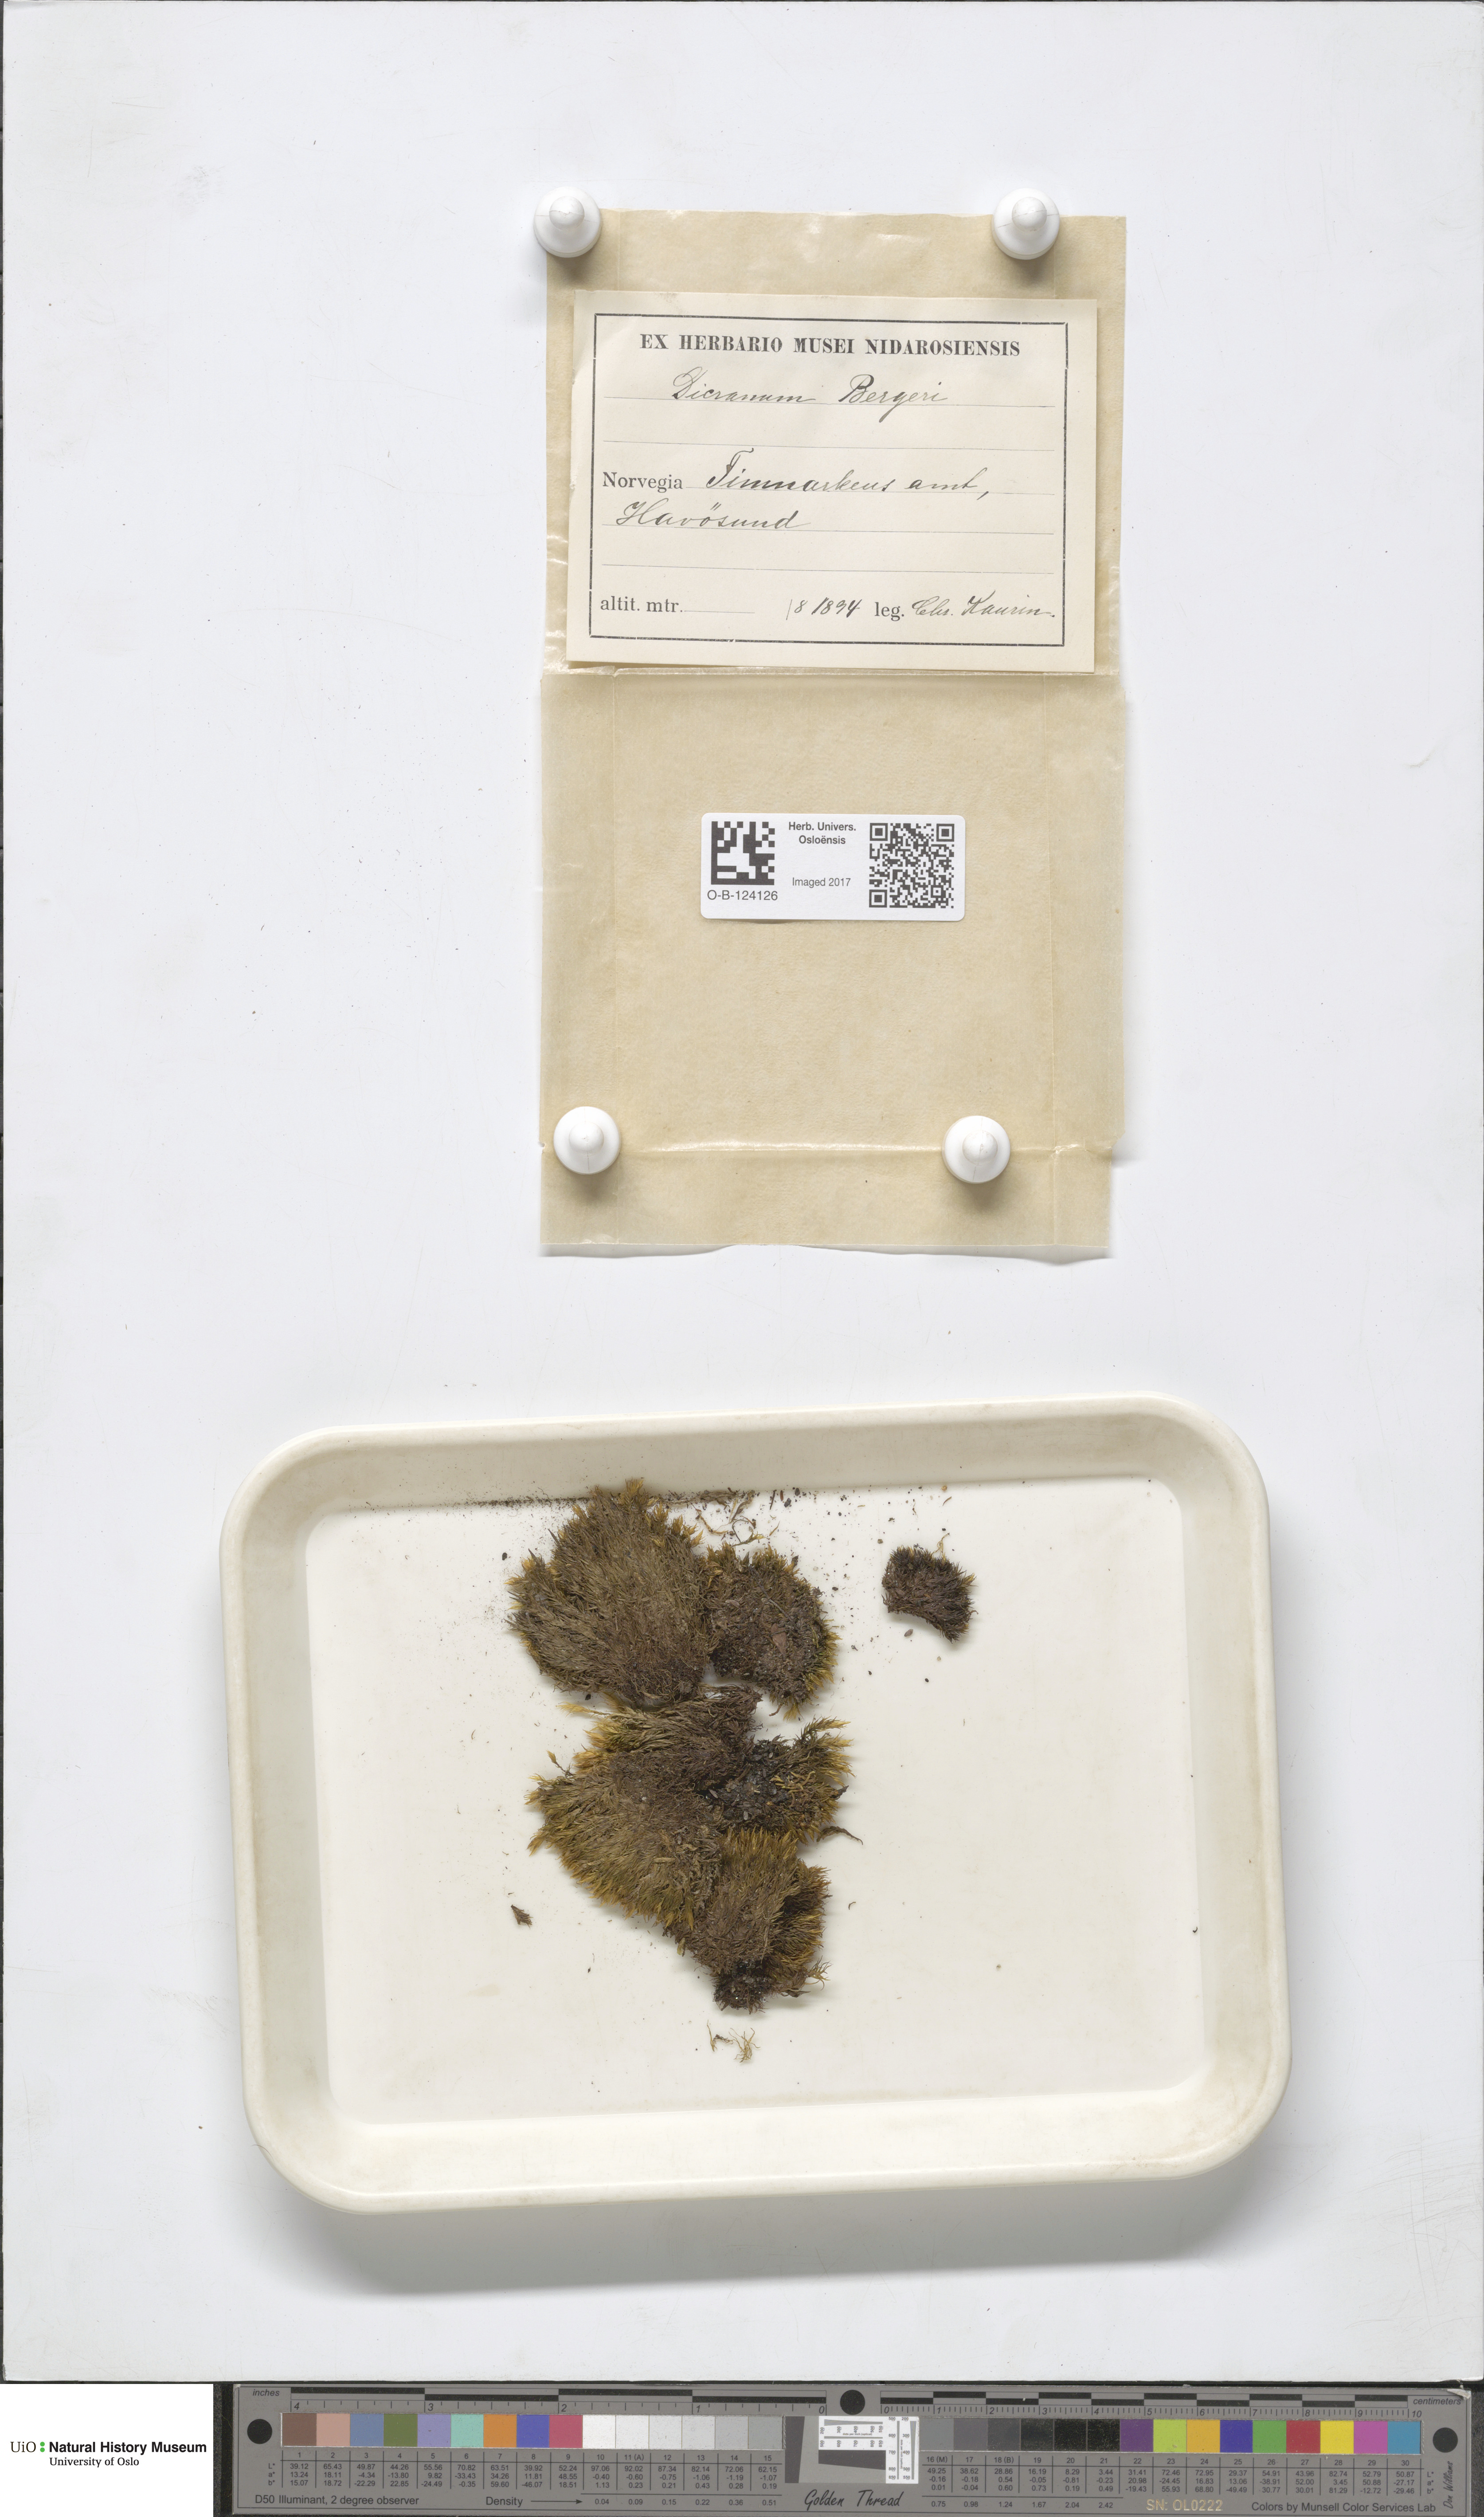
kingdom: Plantae
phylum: Bryophyta
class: Bryopsida
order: Dicranales
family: Dicranaceae
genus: Dicranum
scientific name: Dicranum undulatum
